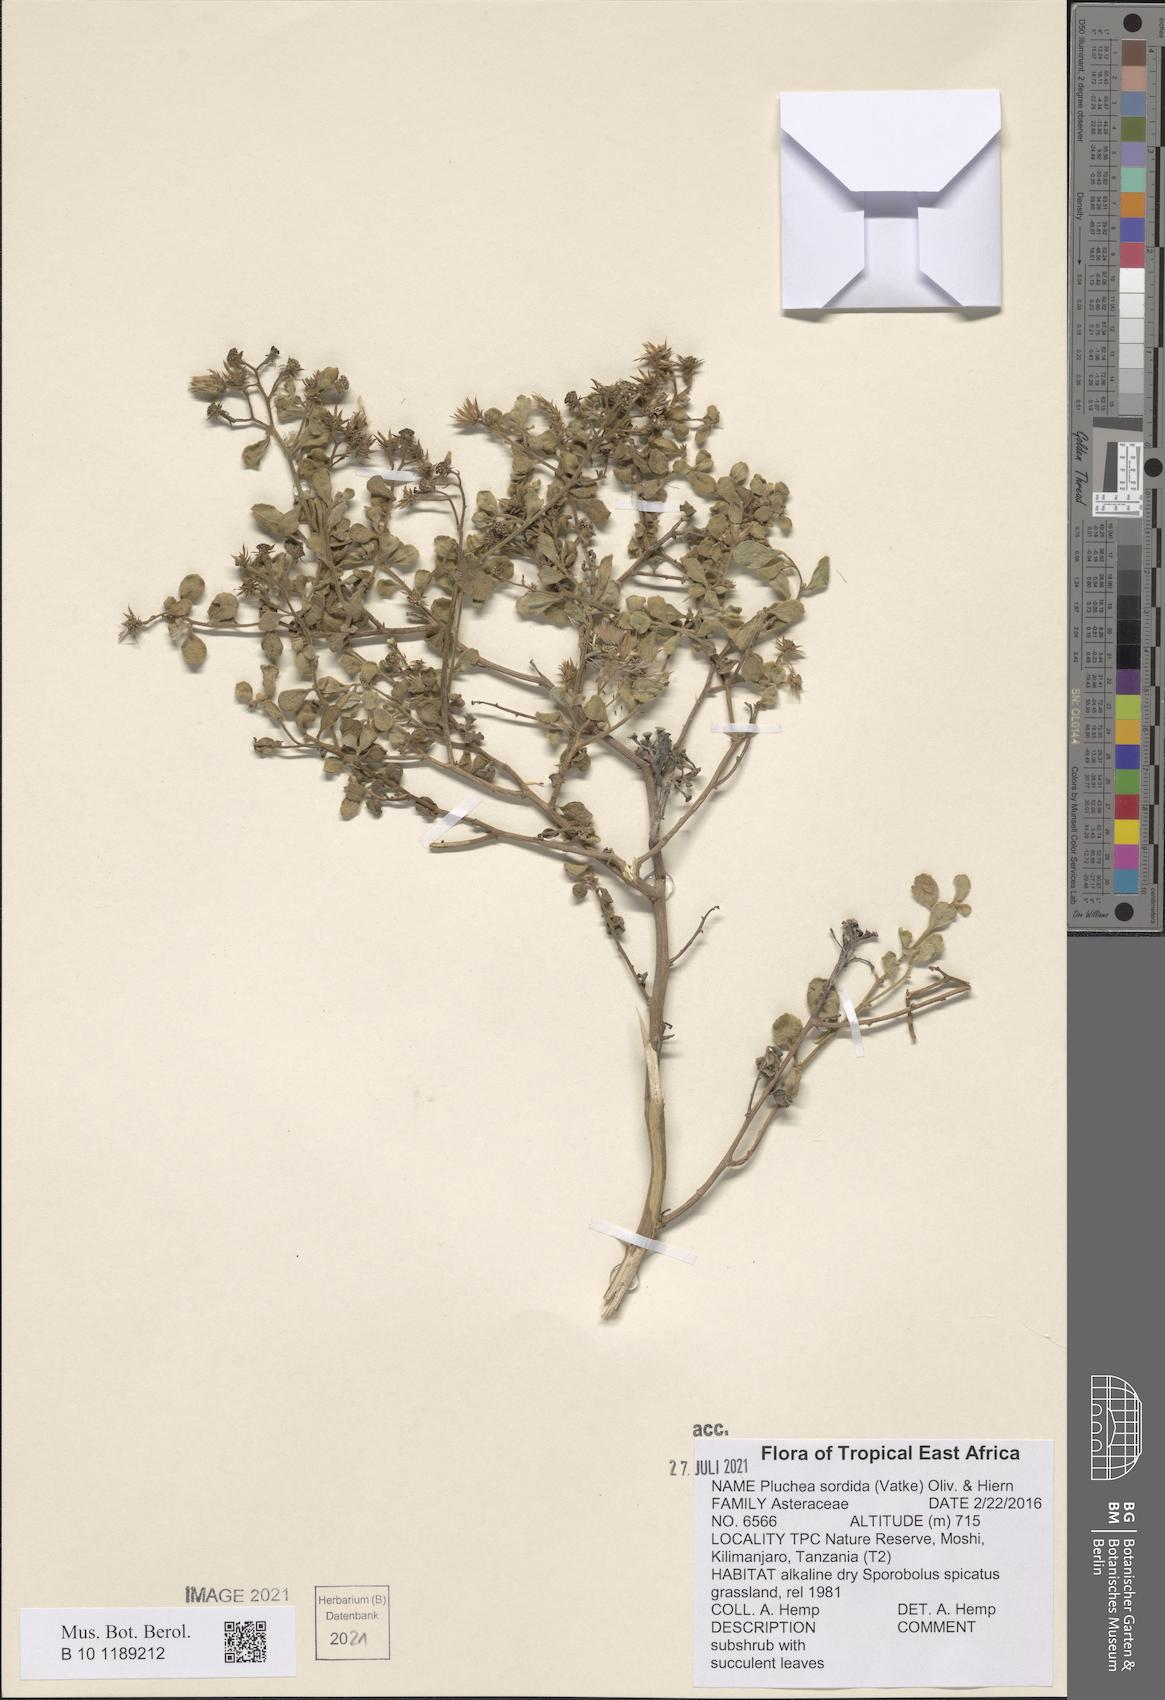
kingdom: Plantae
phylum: Tracheophyta
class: Magnoliopsida
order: Asterales
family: Asteraceae
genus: Pluchea
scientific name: Pluchea sordida
